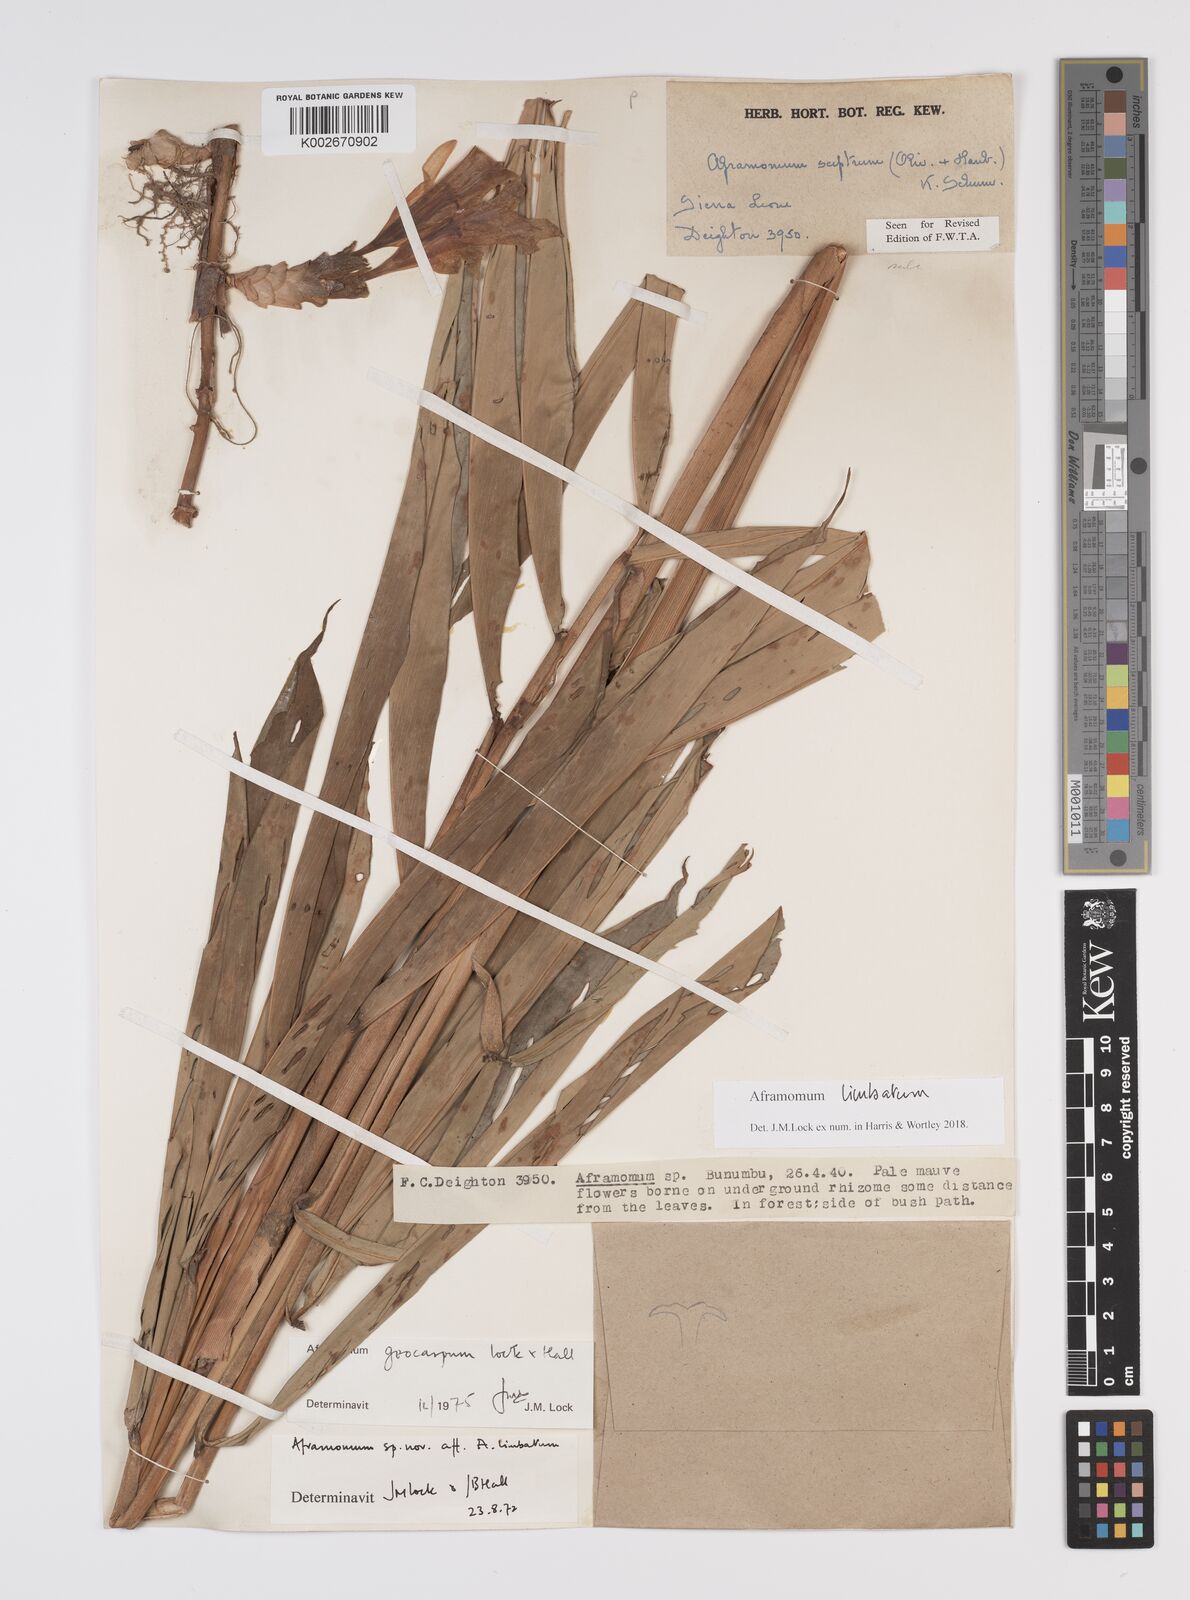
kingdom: Plantae
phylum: Tracheophyta
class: Liliopsida
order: Zingiberales
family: Zingiberaceae
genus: Aframomum
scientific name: Aframomum limbatum
